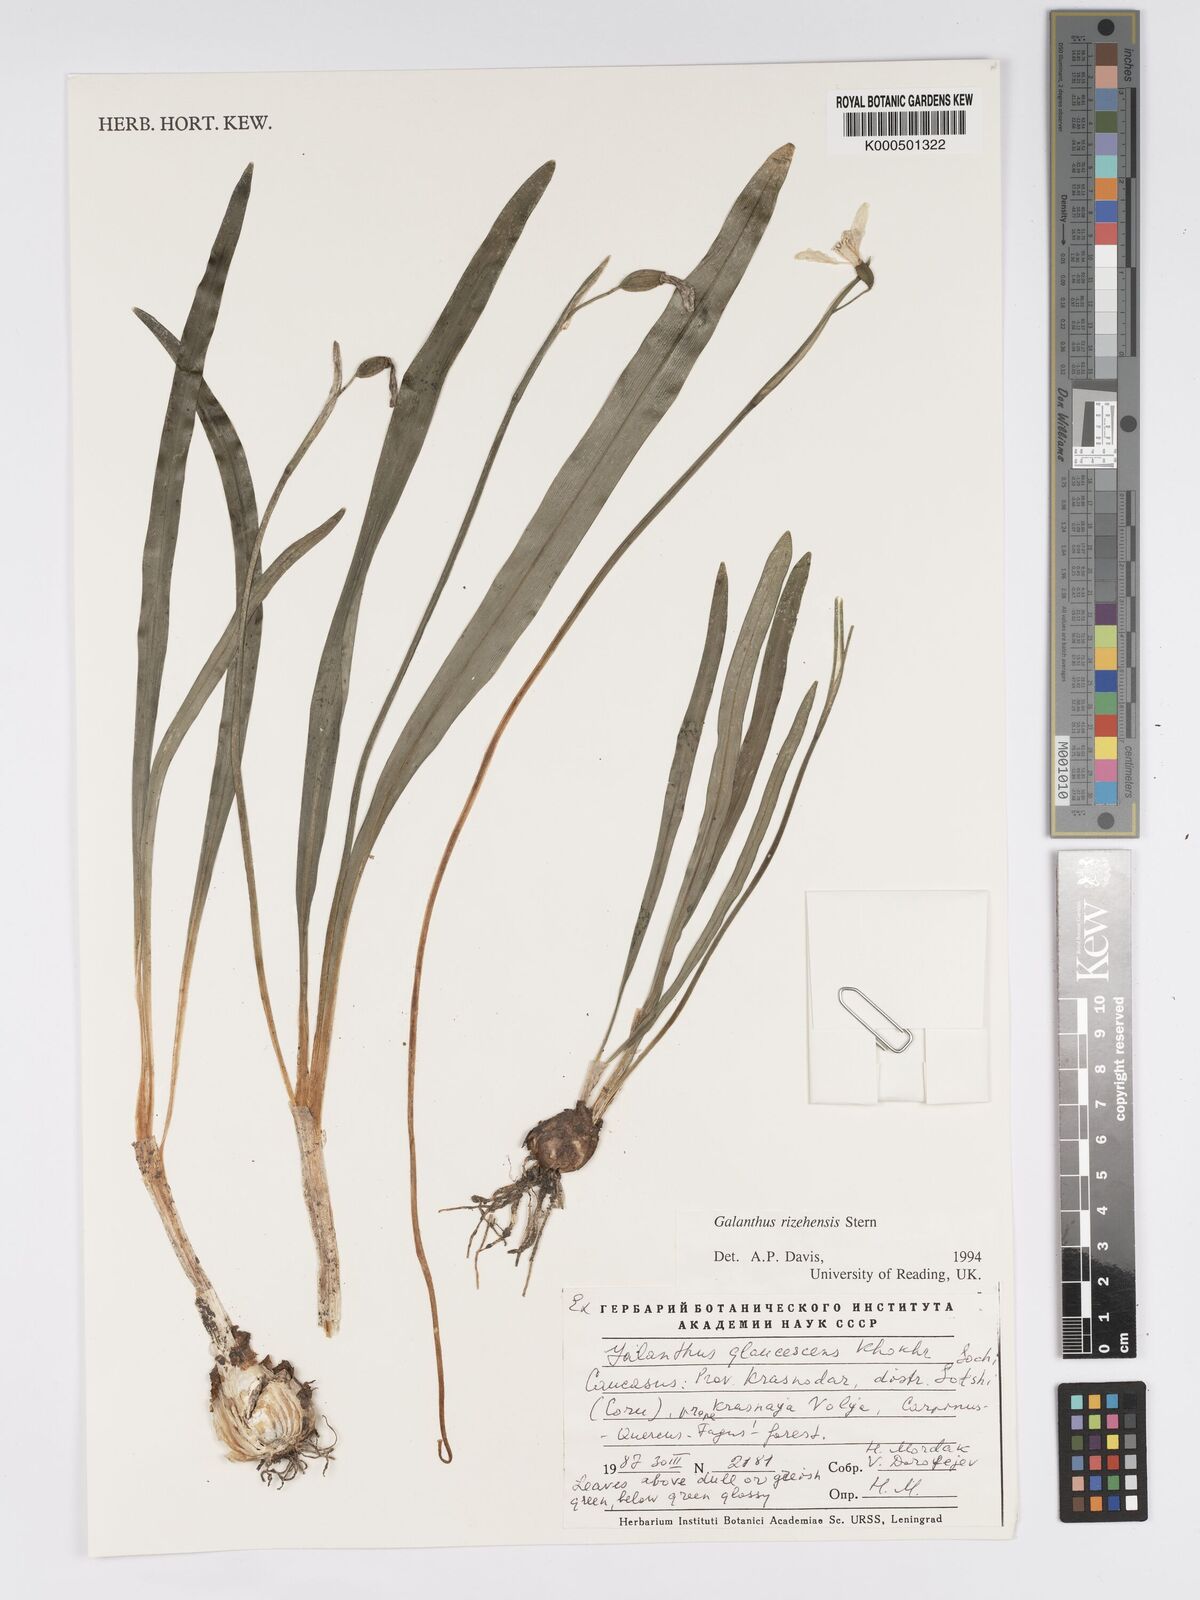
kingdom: Plantae
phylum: Tracheophyta
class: Liliopsida
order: Asparagales
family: Amaryllidaceae
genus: Galanthus
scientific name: Galanthus rizehensis
